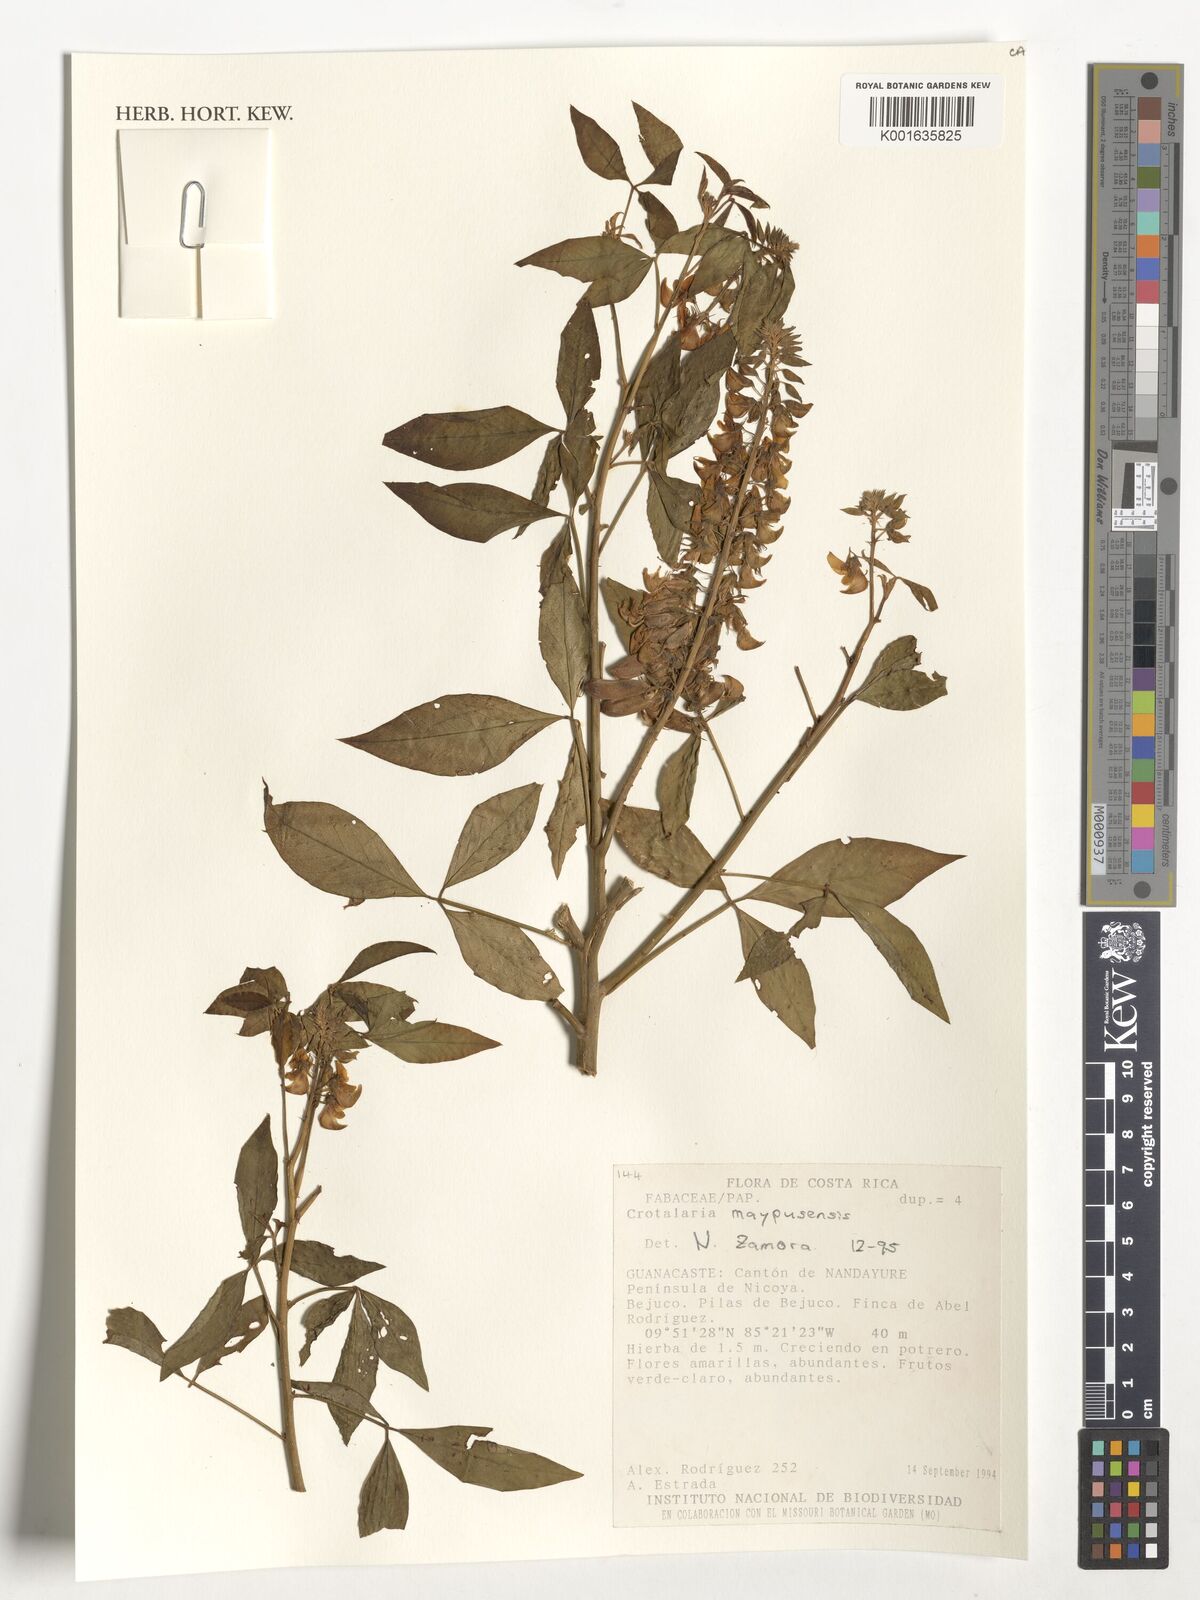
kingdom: Plantae
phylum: Tracheophyta
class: Magnoliopsida
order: Fabales
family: Fabaceae
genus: Crotalaria
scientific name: Crotalaria maypurensis
